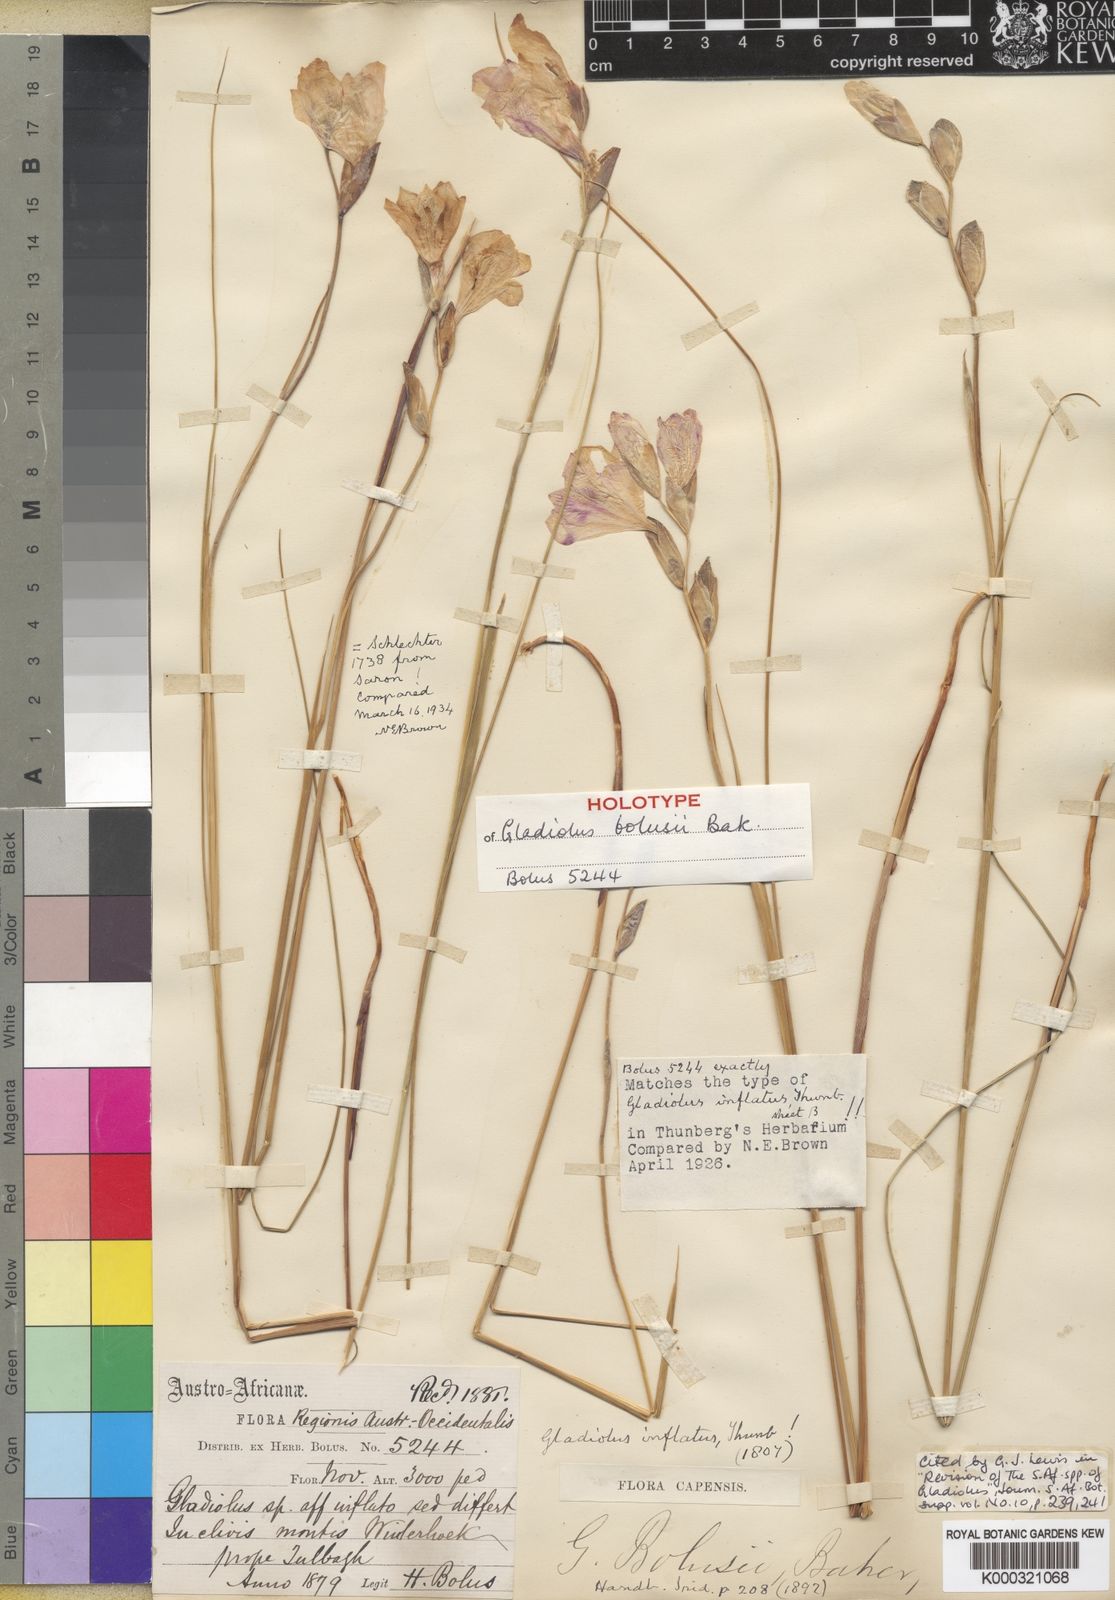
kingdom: Plantae
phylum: Tracheophyta
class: Liliopsida
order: Asparagales
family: Iridaceae
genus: Gladiolus
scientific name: Gladiolus inflatus
